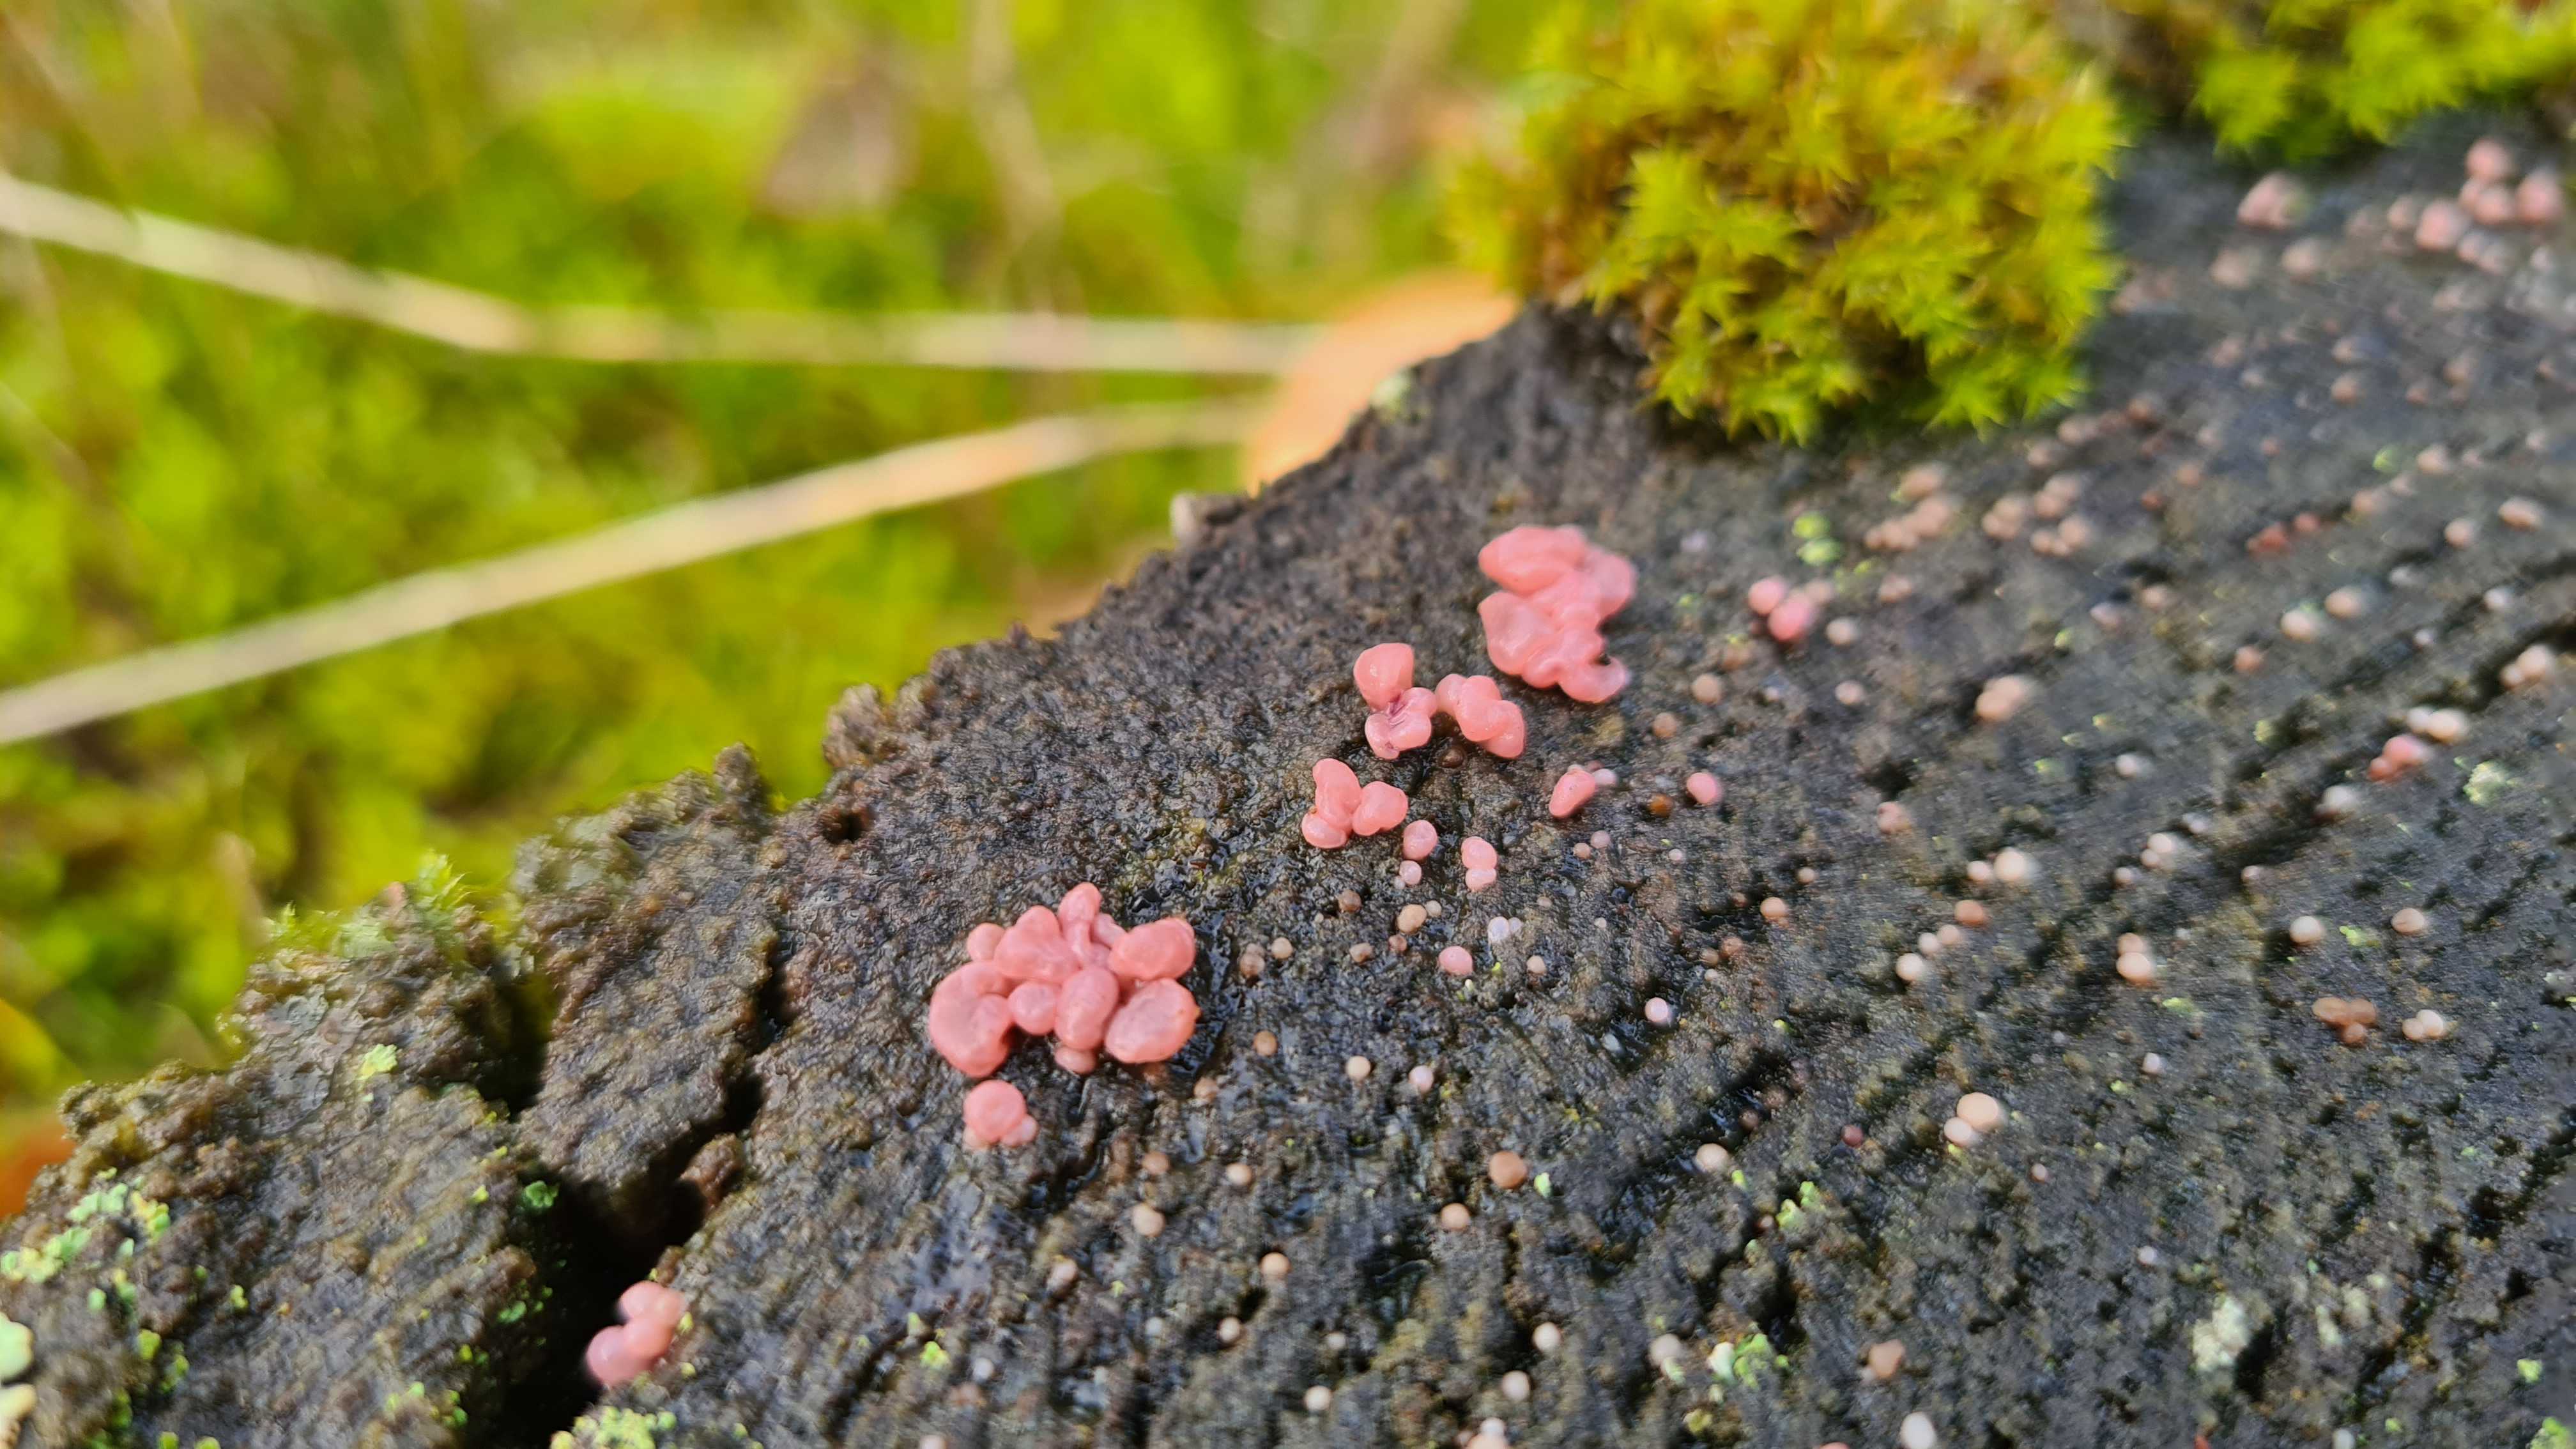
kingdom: Fungi
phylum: Ascomycota
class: Leotiomycetes
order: Helotiales
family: Gelatinodiscaceae
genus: Ascocoryne
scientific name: Ascocoryne sarcoides
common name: rødlilla sejskive
